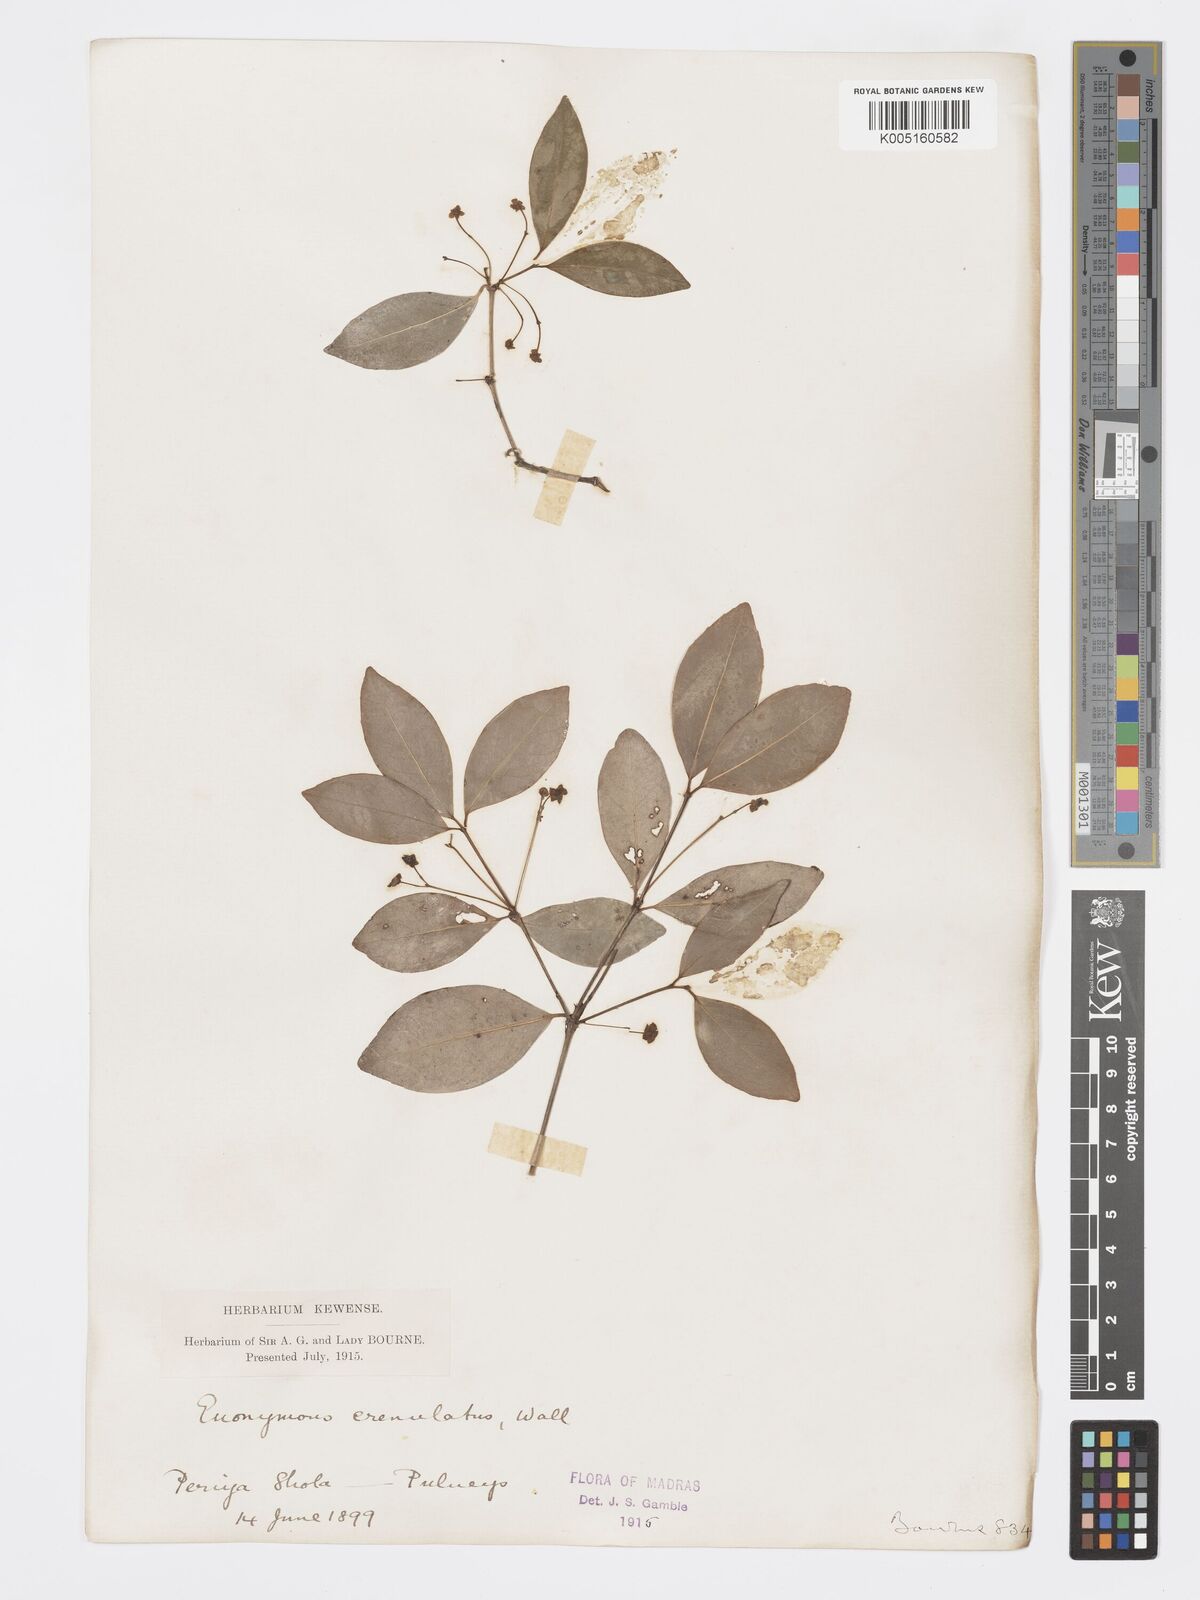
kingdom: Plantae
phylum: Tracheophyta
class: Magnoliopsida
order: Celastrales
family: Celastraceae
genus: Euonymus
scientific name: Euonymus crenulatus
